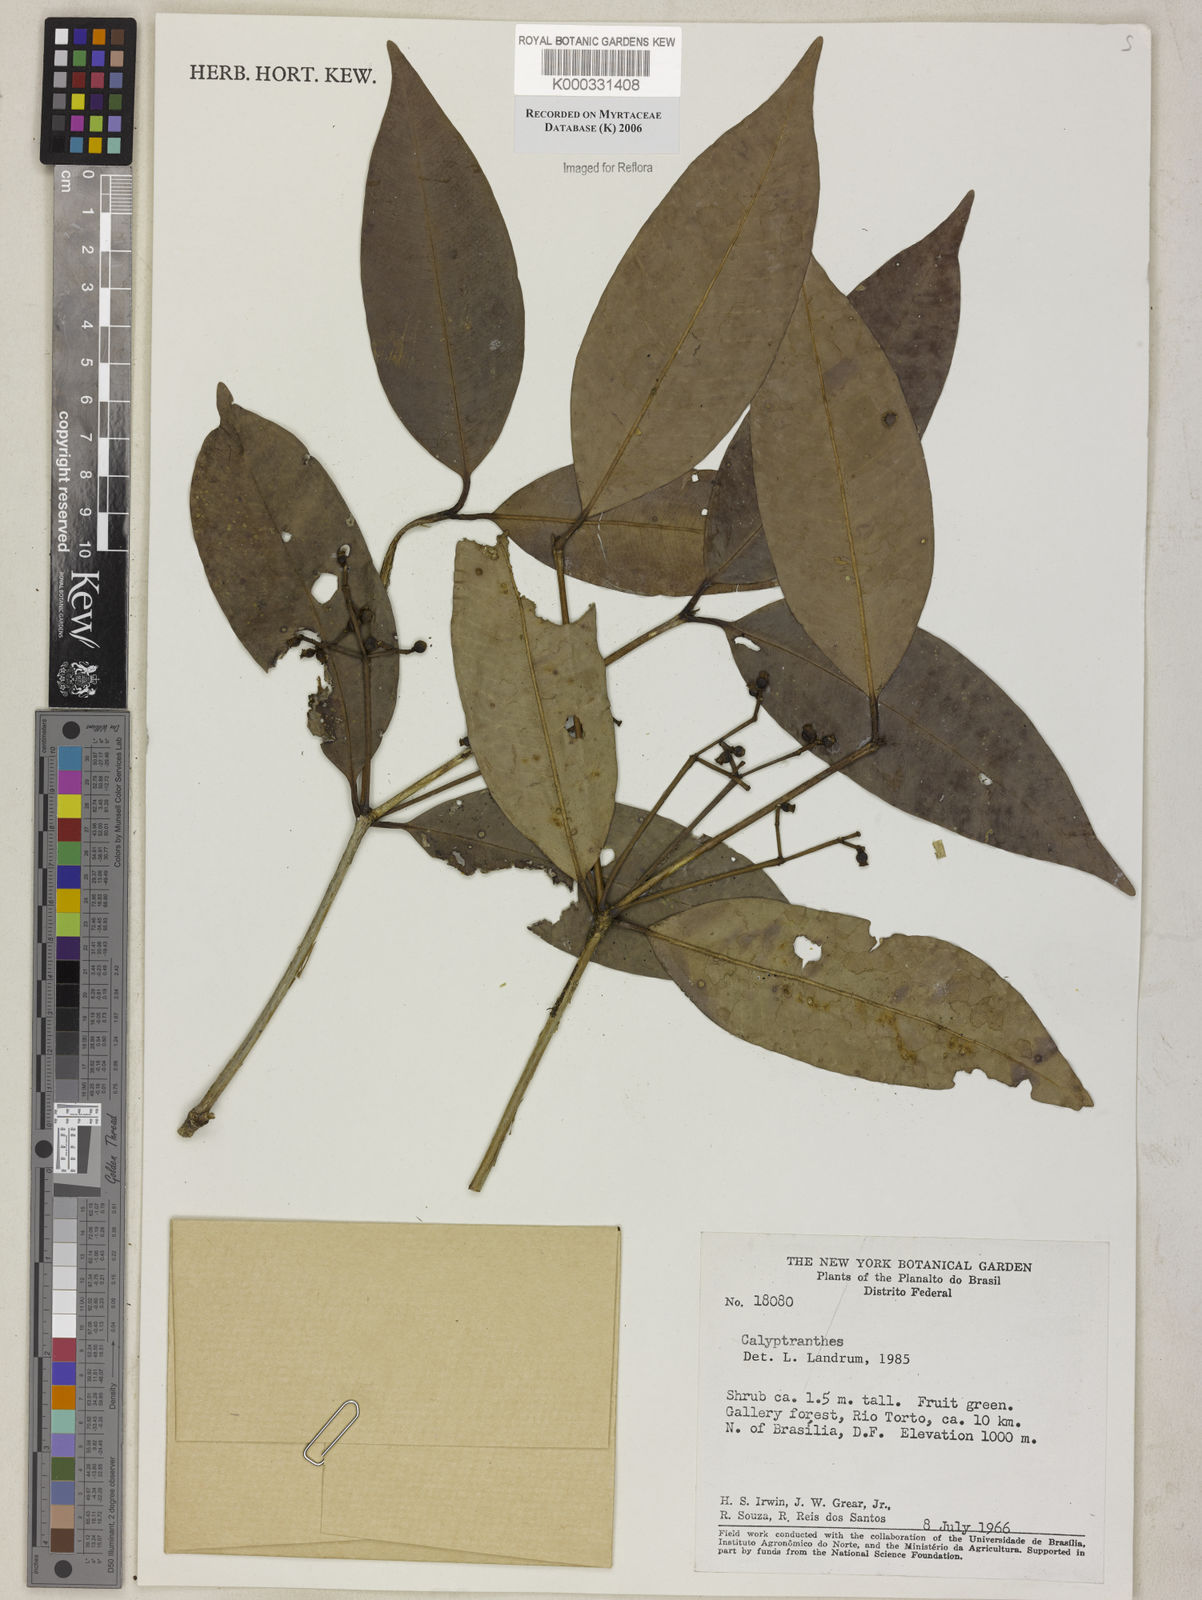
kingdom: Plantae
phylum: Tracheophyta
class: Magnoliopsida
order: Myrtales
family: Myrtaceae
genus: Calyptranthes
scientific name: Calyptranthes
